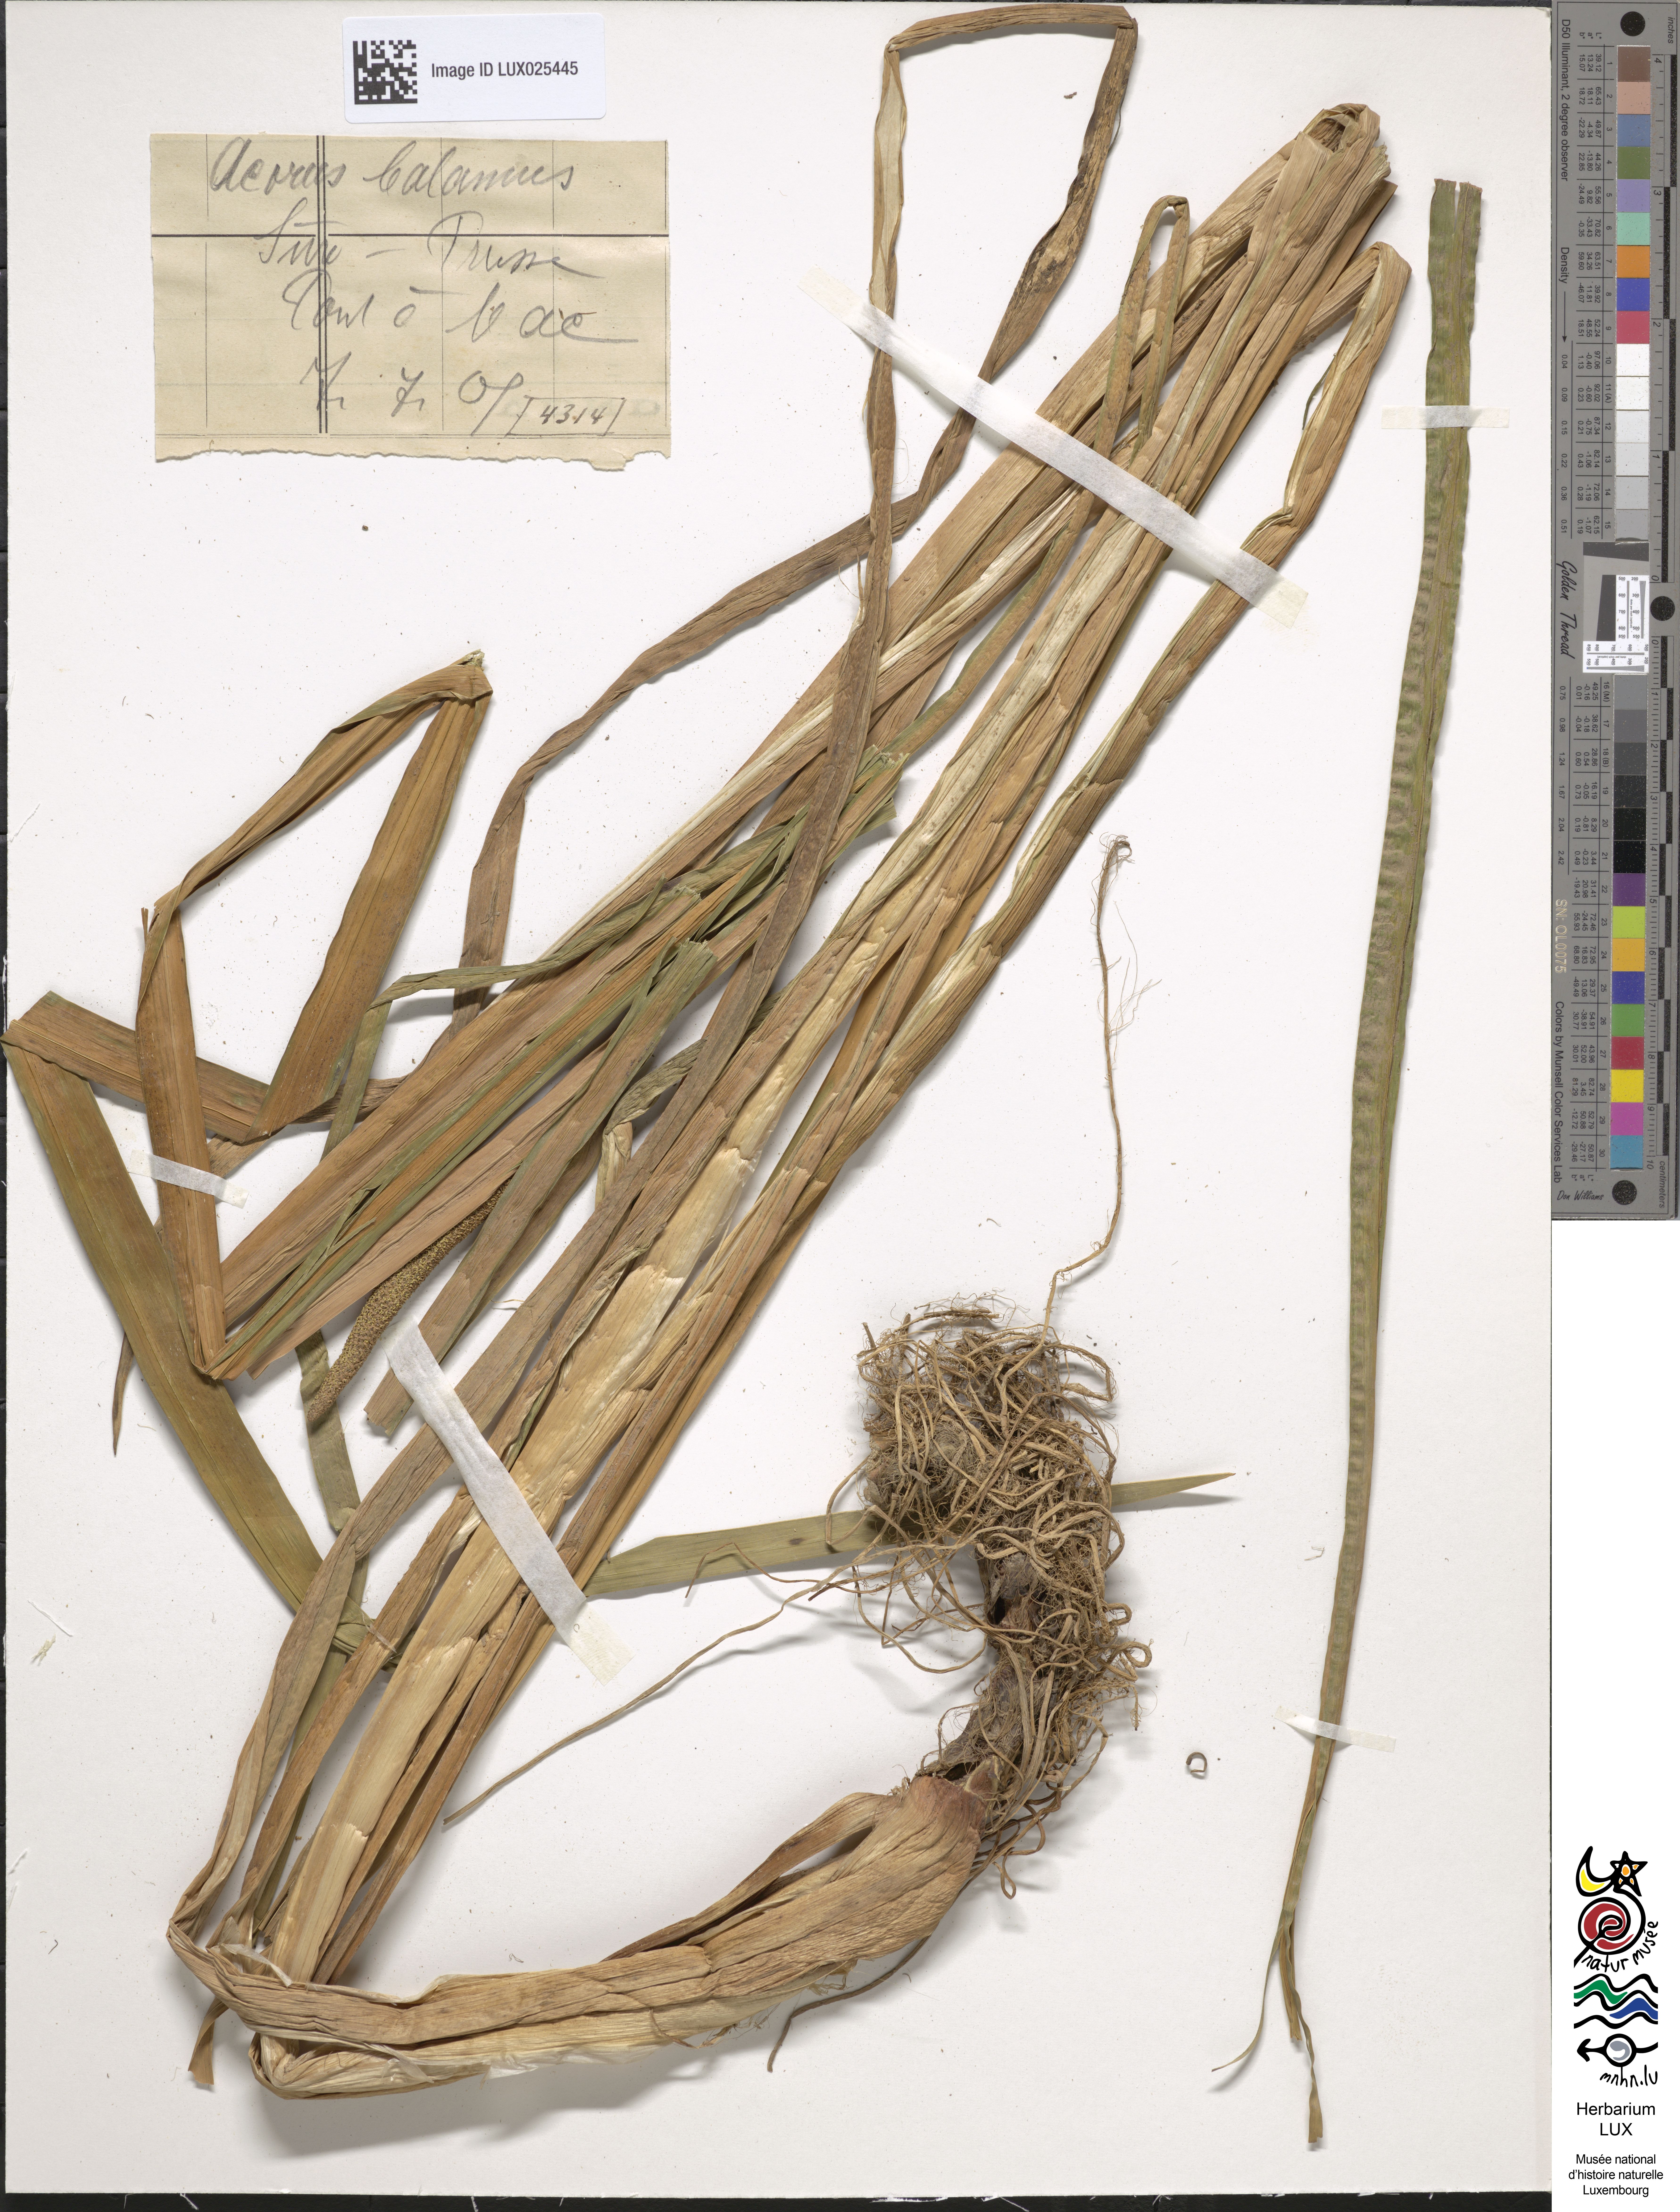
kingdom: Plantae
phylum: Tracheophyta
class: Liliopsida
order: Acorales
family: Acoraceae
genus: Acorus
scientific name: Acorus calamus
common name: Sweet-flag
